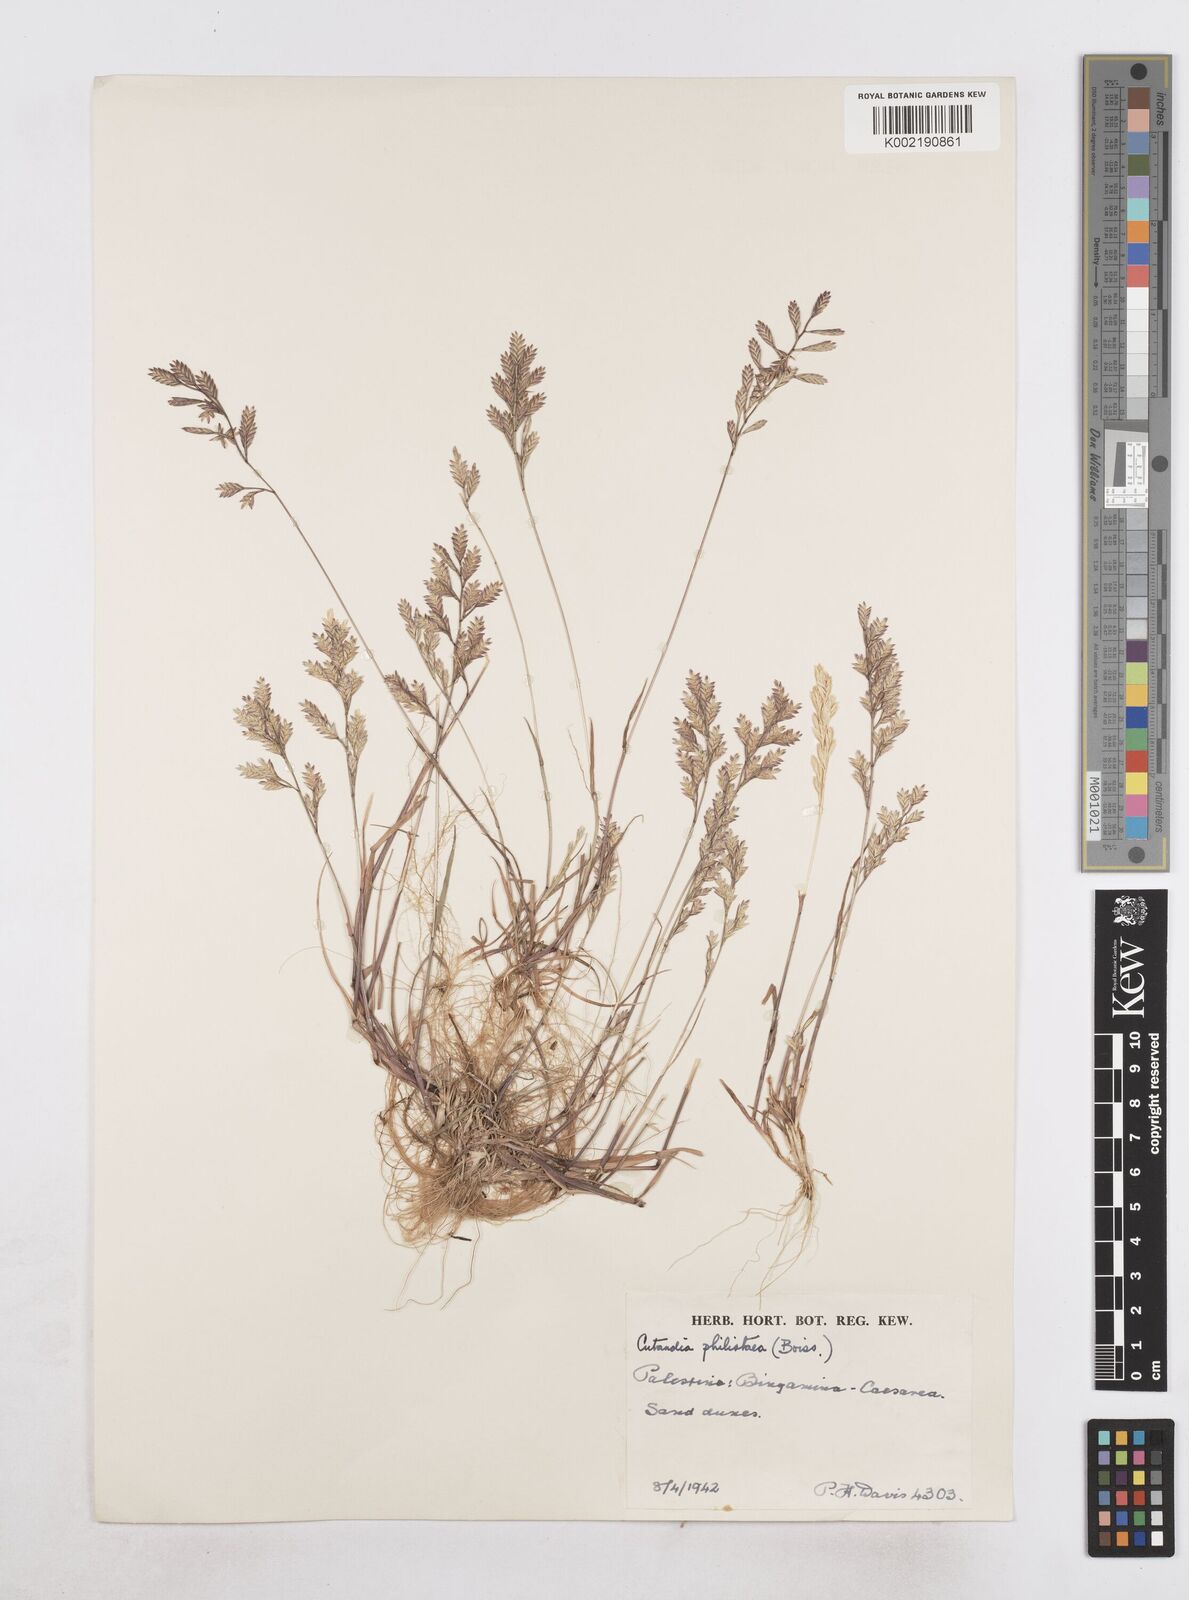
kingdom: Plantae
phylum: Tracheophyta
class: Liliopsida
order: Poales
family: Poaceae
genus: Desmazeria
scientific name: Desmazeria philistaea
